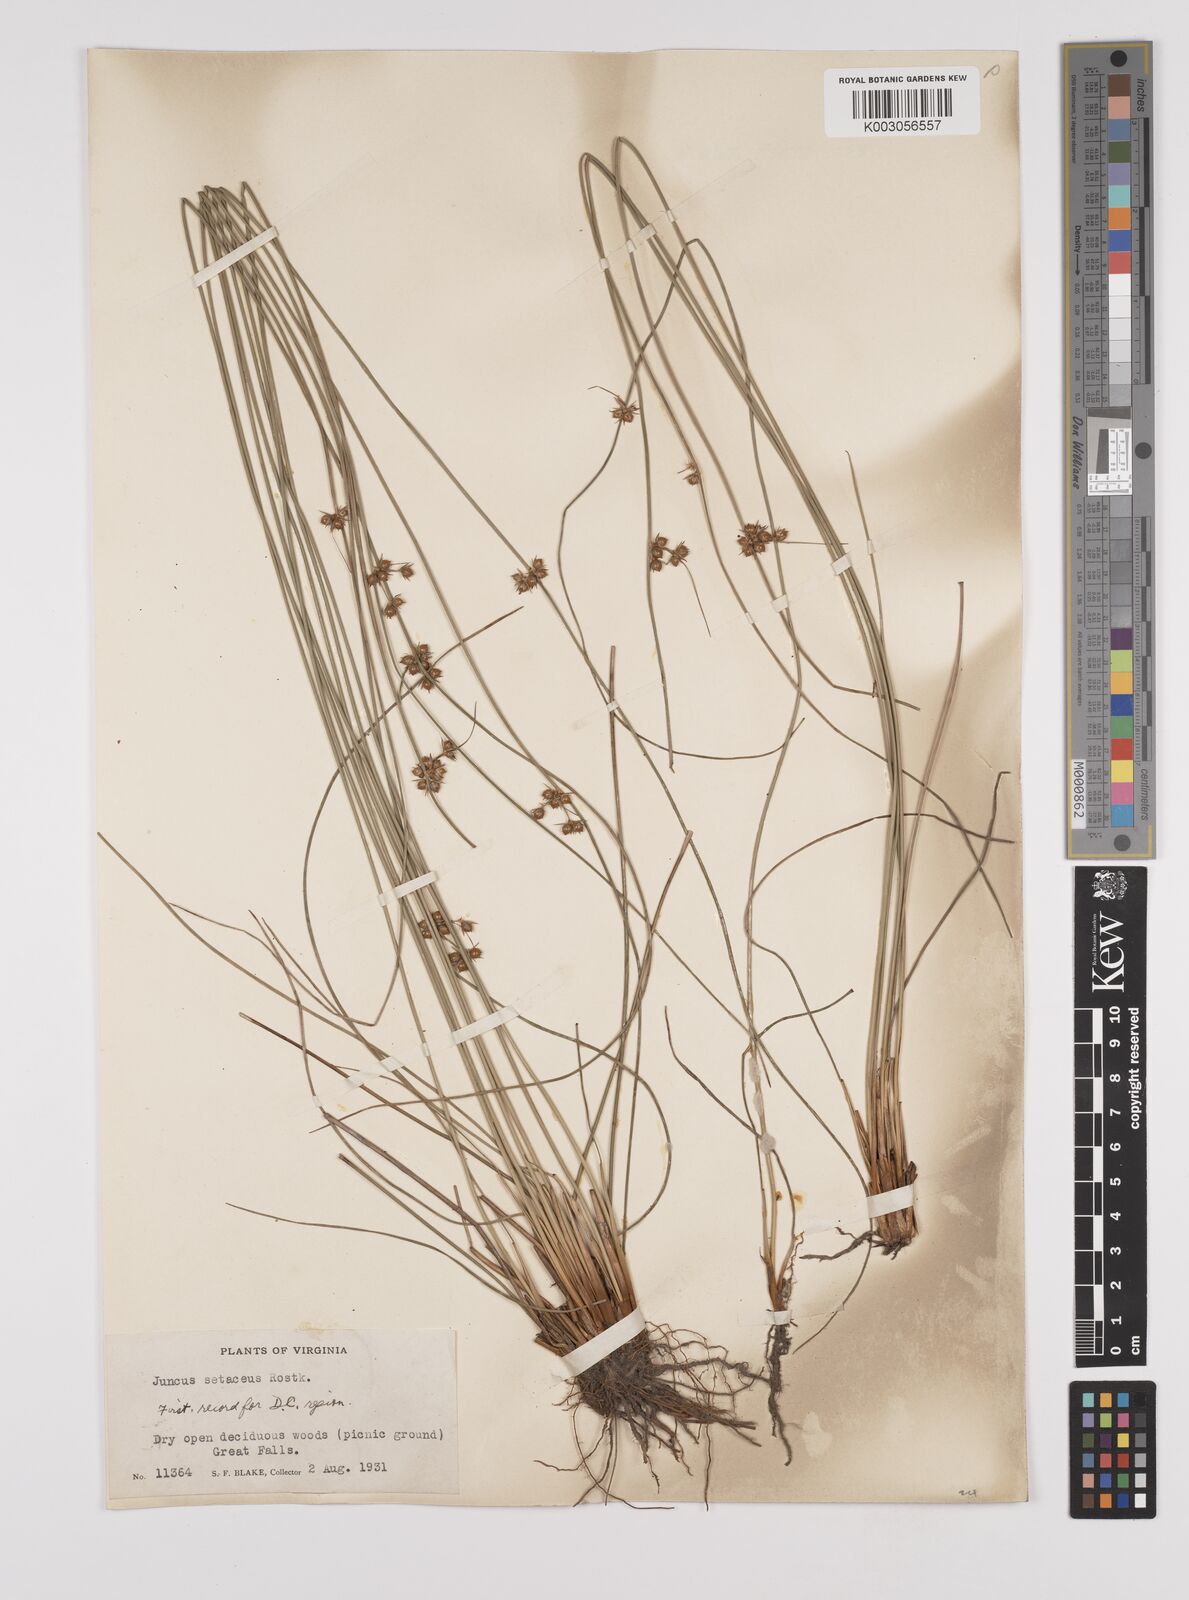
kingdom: Plantae
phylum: Tracheophyta
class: Liliopsida
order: Poales
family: Juncaceae
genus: Juncus
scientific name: Juncus balticus
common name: Baltic rush
